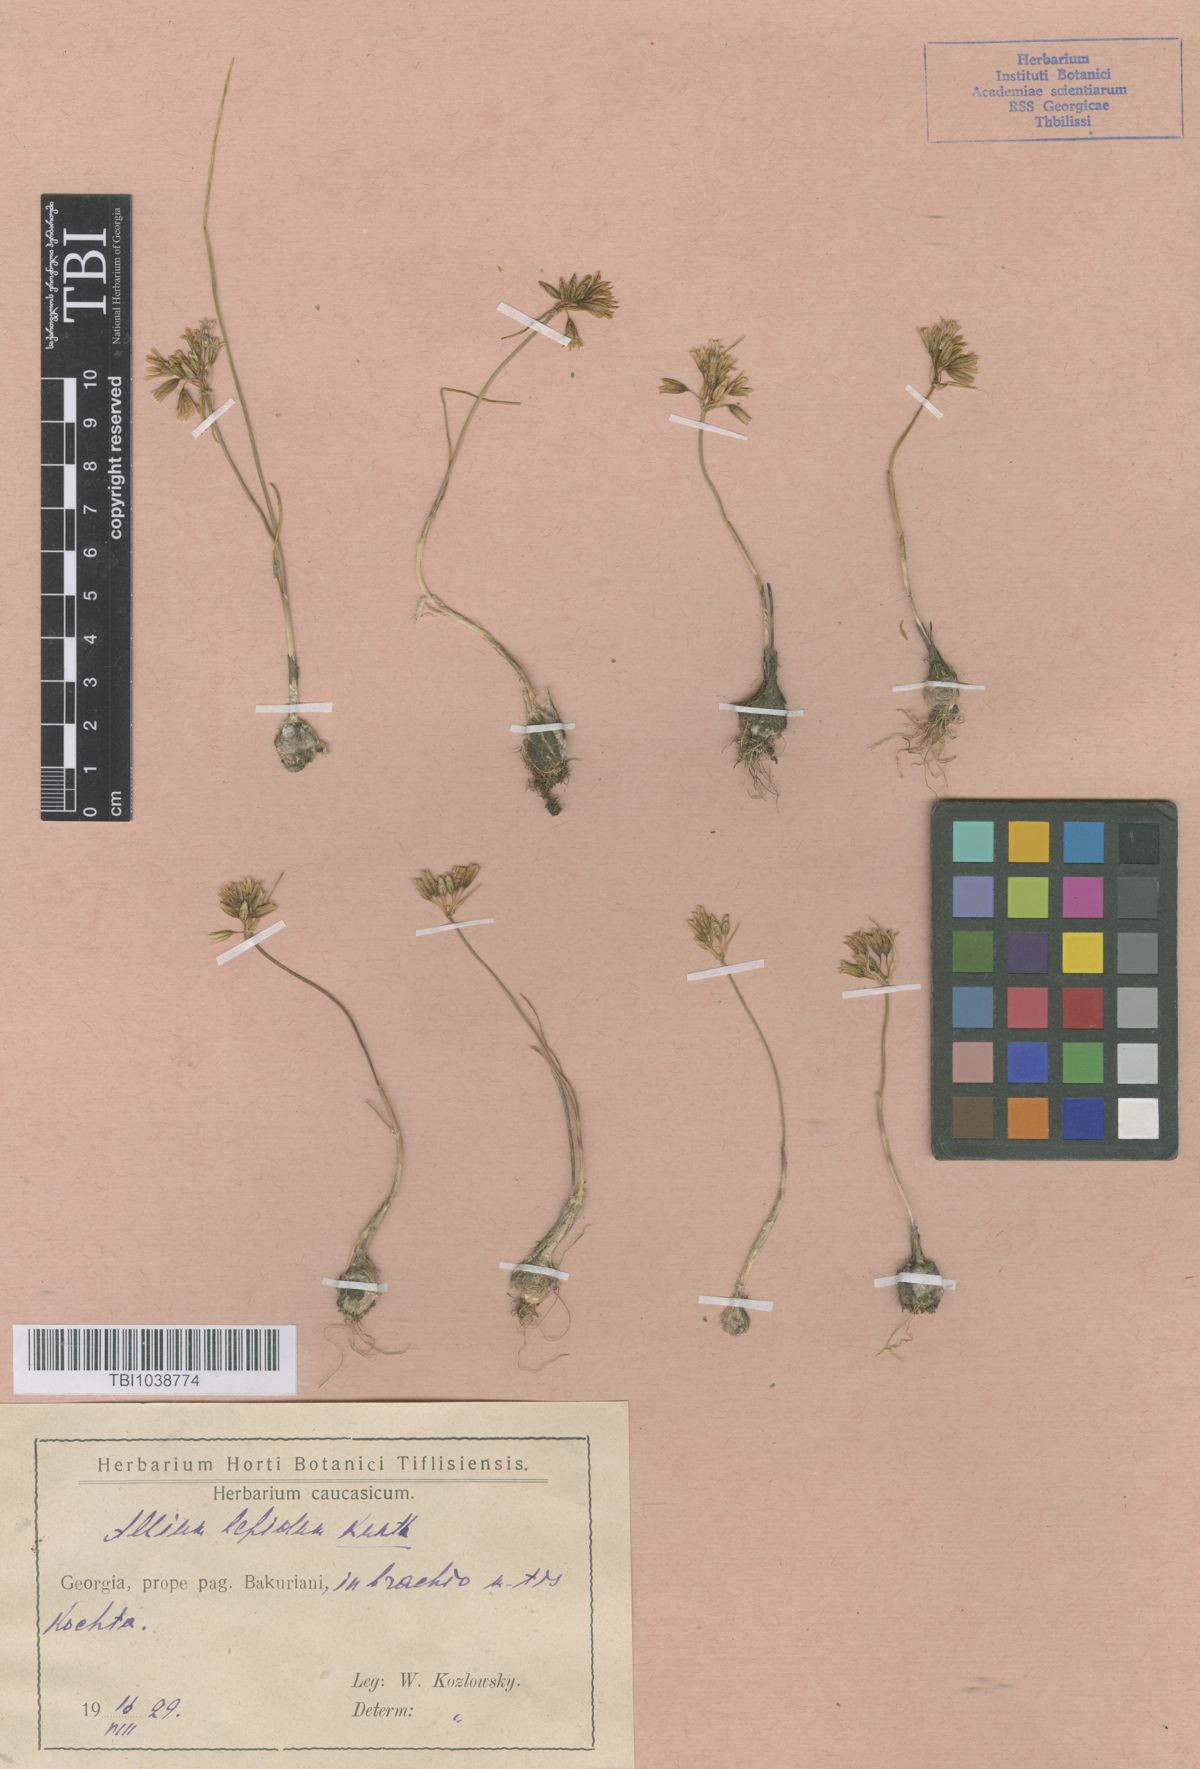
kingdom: Plantae
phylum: Tracheophyta
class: Liliopsida
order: Asparagales
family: Amaryllidaceae
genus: Allium
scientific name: Allium kunthianum
